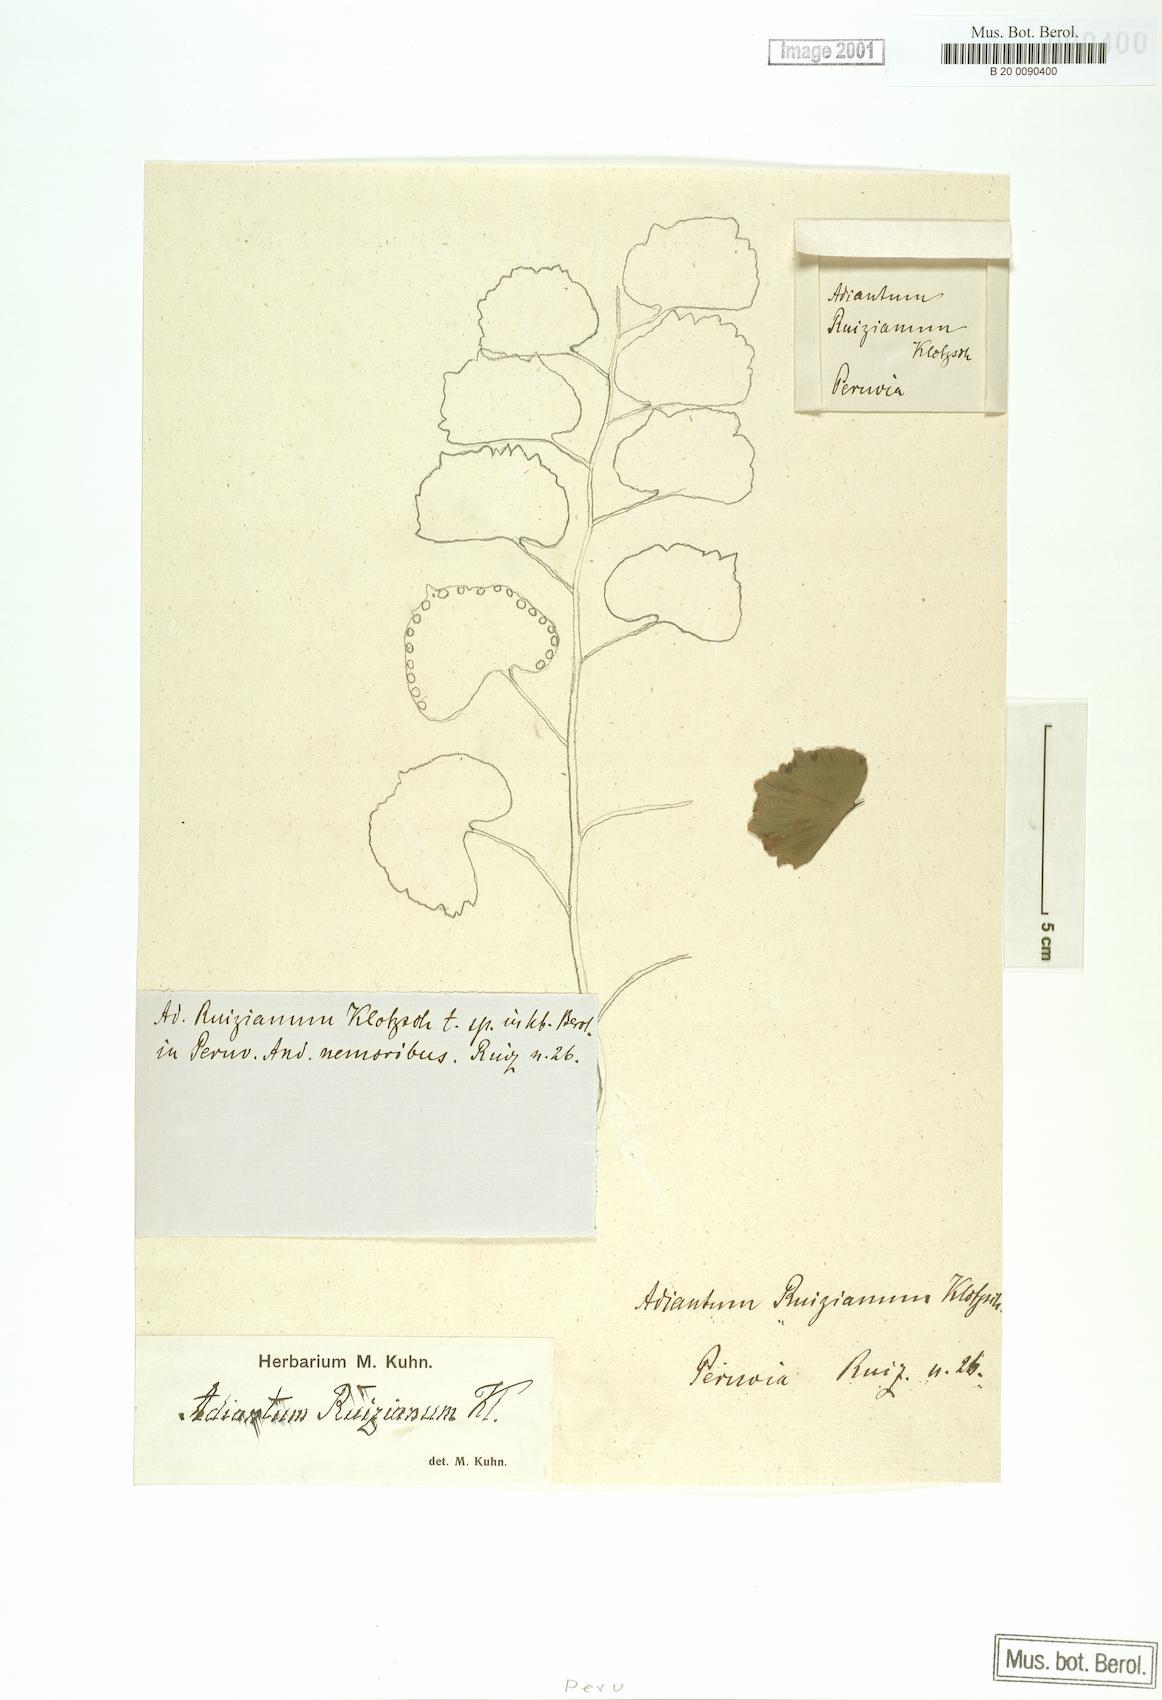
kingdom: Plantae
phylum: Tracheophyta
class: Polypodiopsida
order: Polypodiales
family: Pteridaceae
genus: Adiantum
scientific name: Adiantum ruizianum
